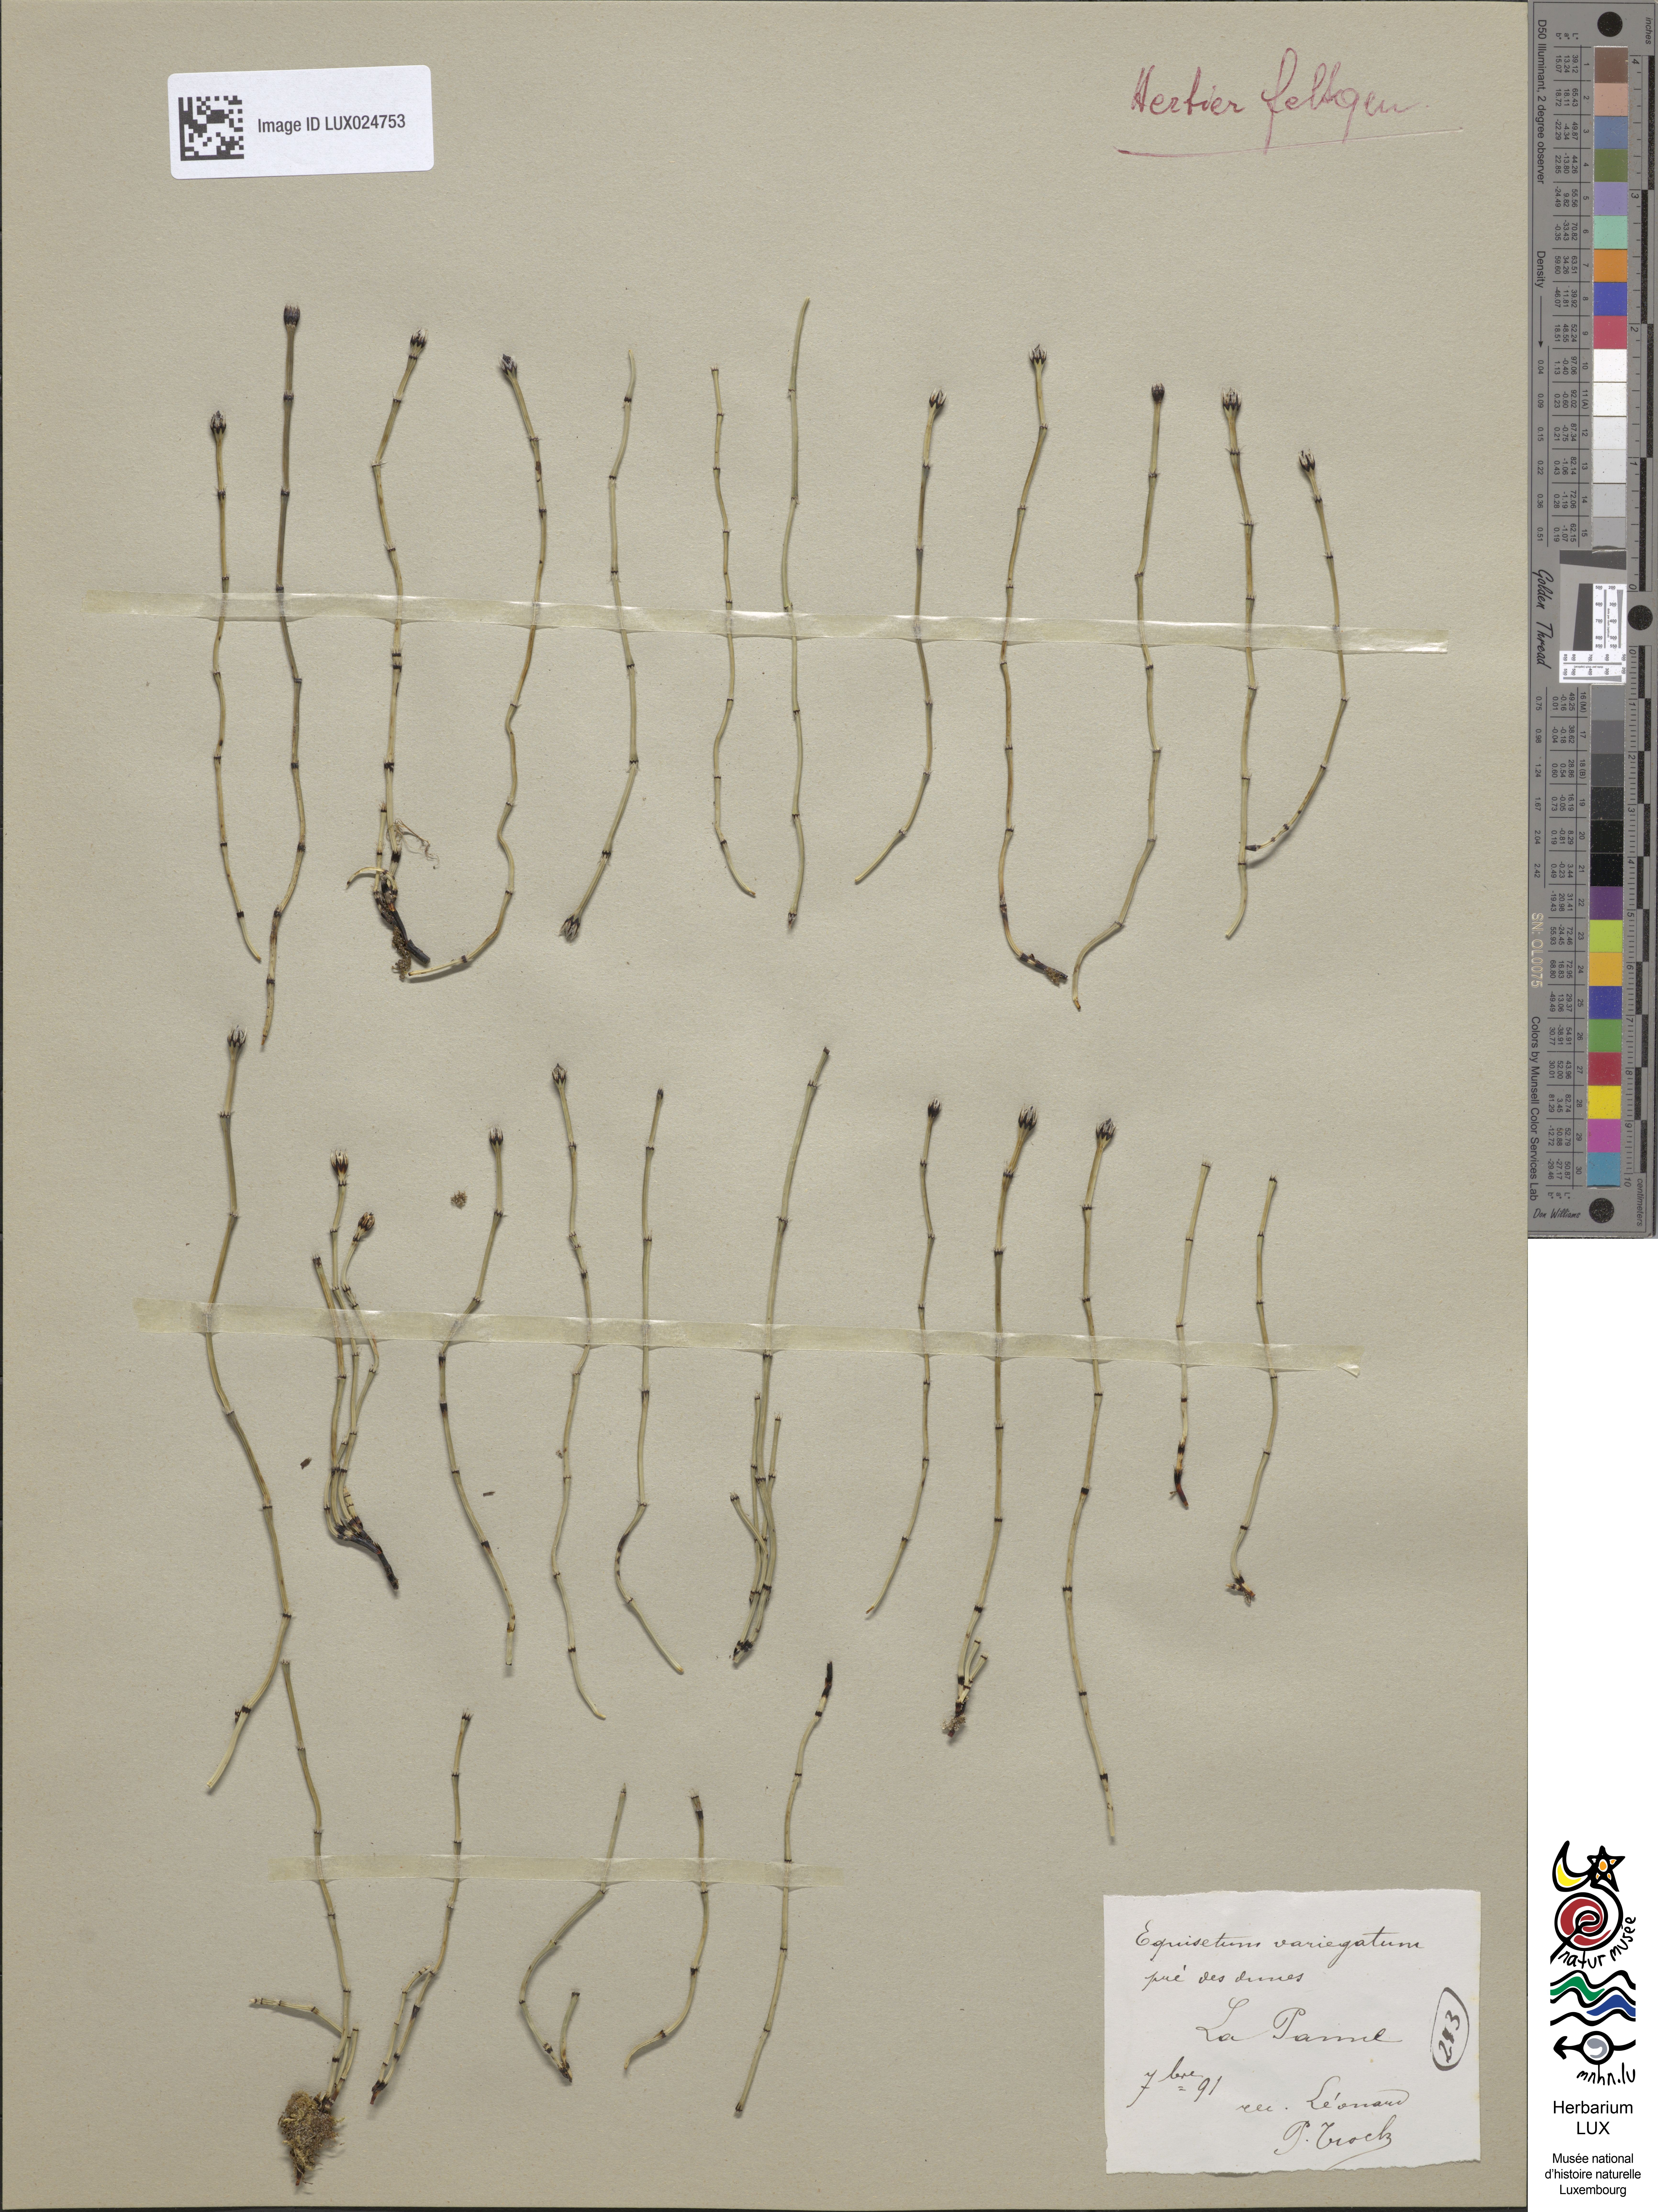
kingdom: Plantae
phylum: Tracheophyta
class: Polypodiopsida
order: Equisetales
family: Equisetaceae
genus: Equisetum
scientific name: Equisetum variegatum
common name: Variegated horsetail
